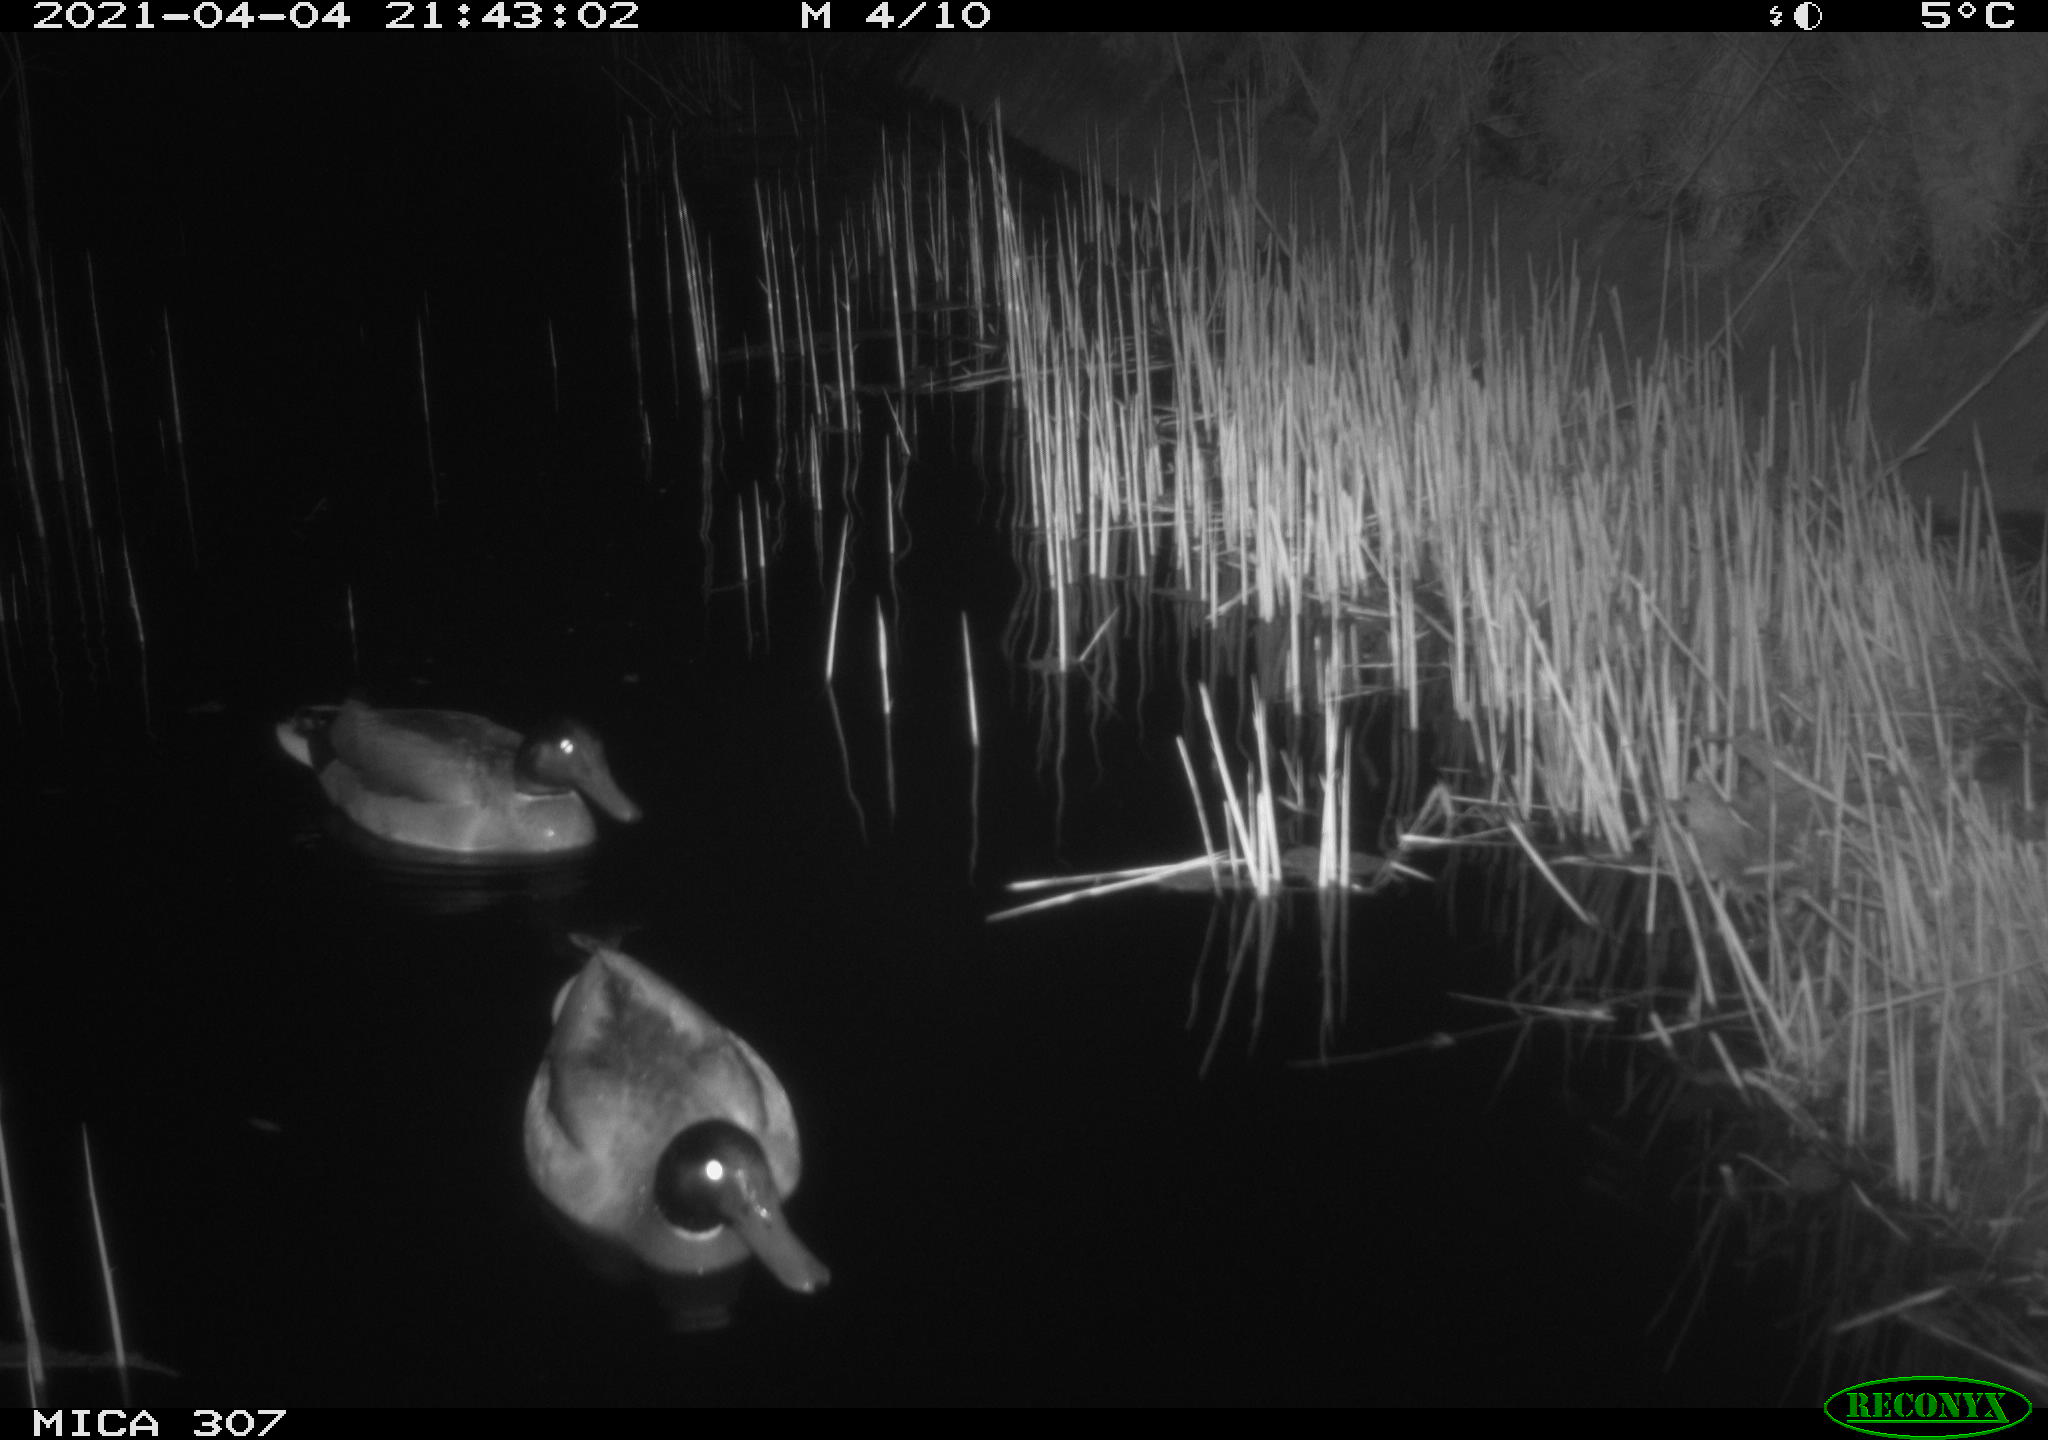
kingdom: Animalia
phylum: Chordata
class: Aves
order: Gruiformes
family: Rallidae
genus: Gallinula
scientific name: Gallinula chloropus
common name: Common moorhen
